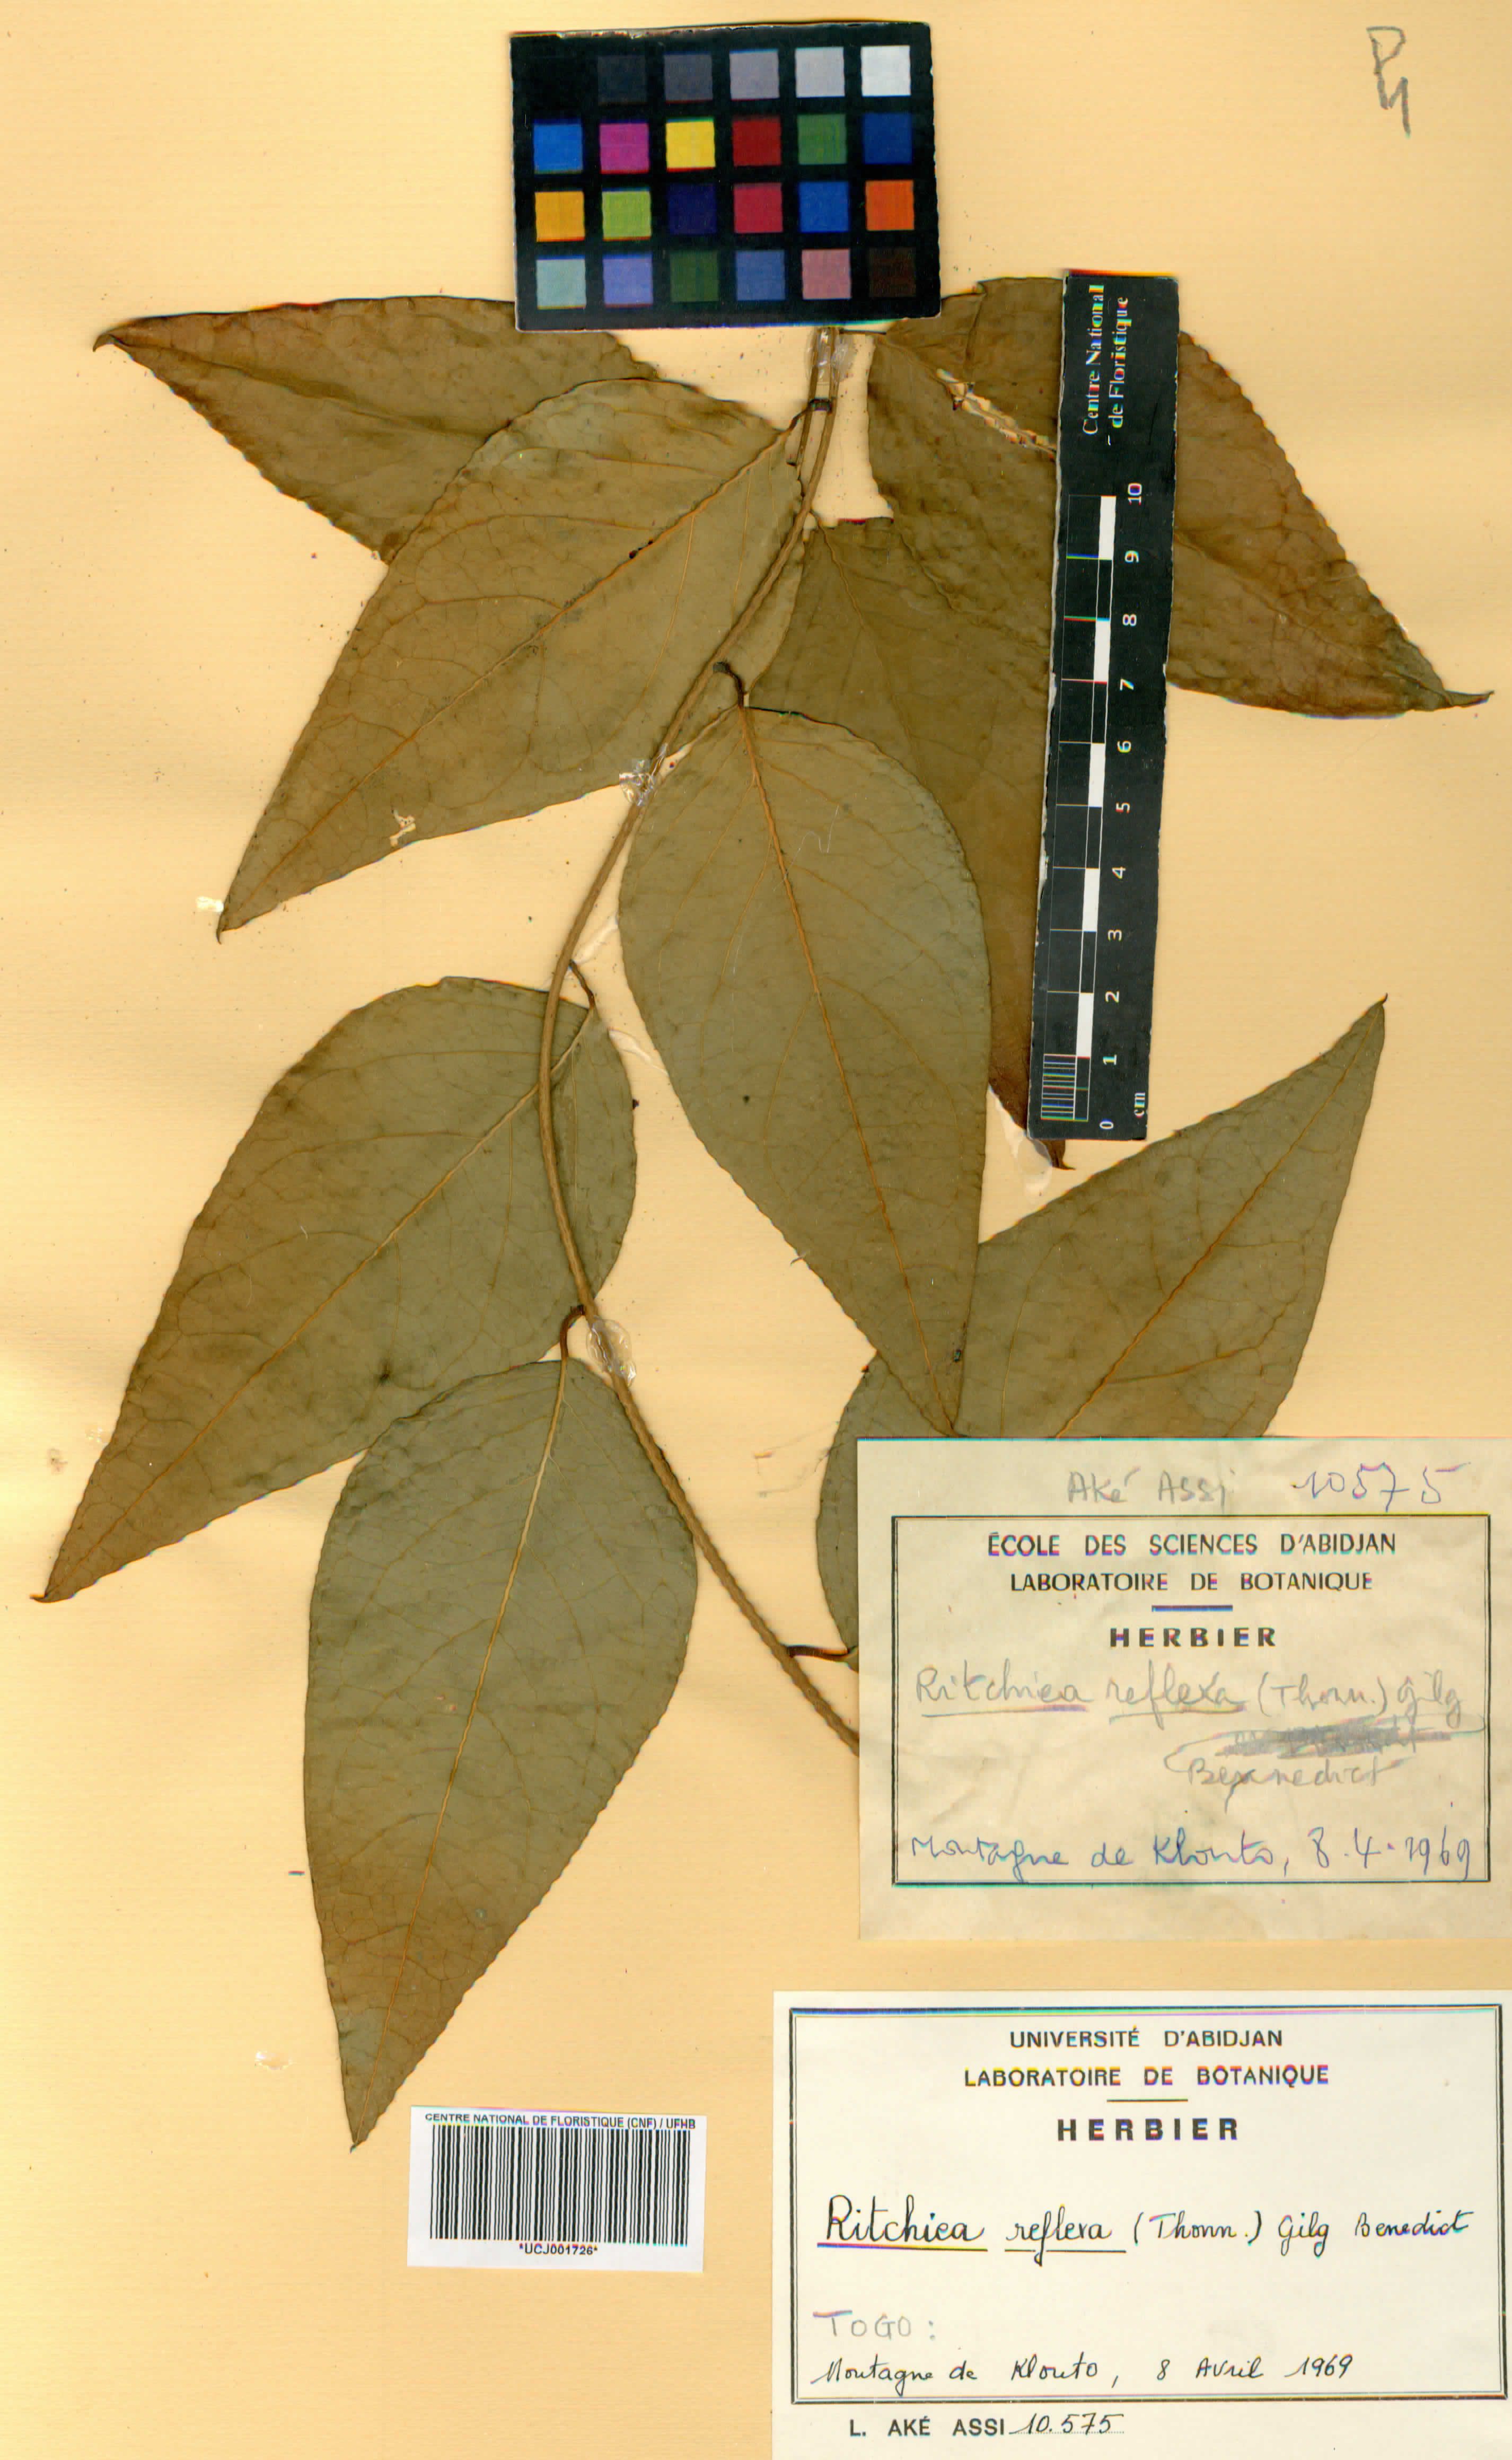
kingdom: Plantae
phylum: Tracheophyta
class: Magnoliopsida
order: Brassicales
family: Capparaceae
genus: Ritchiea
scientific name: Ritchiea reflexa
